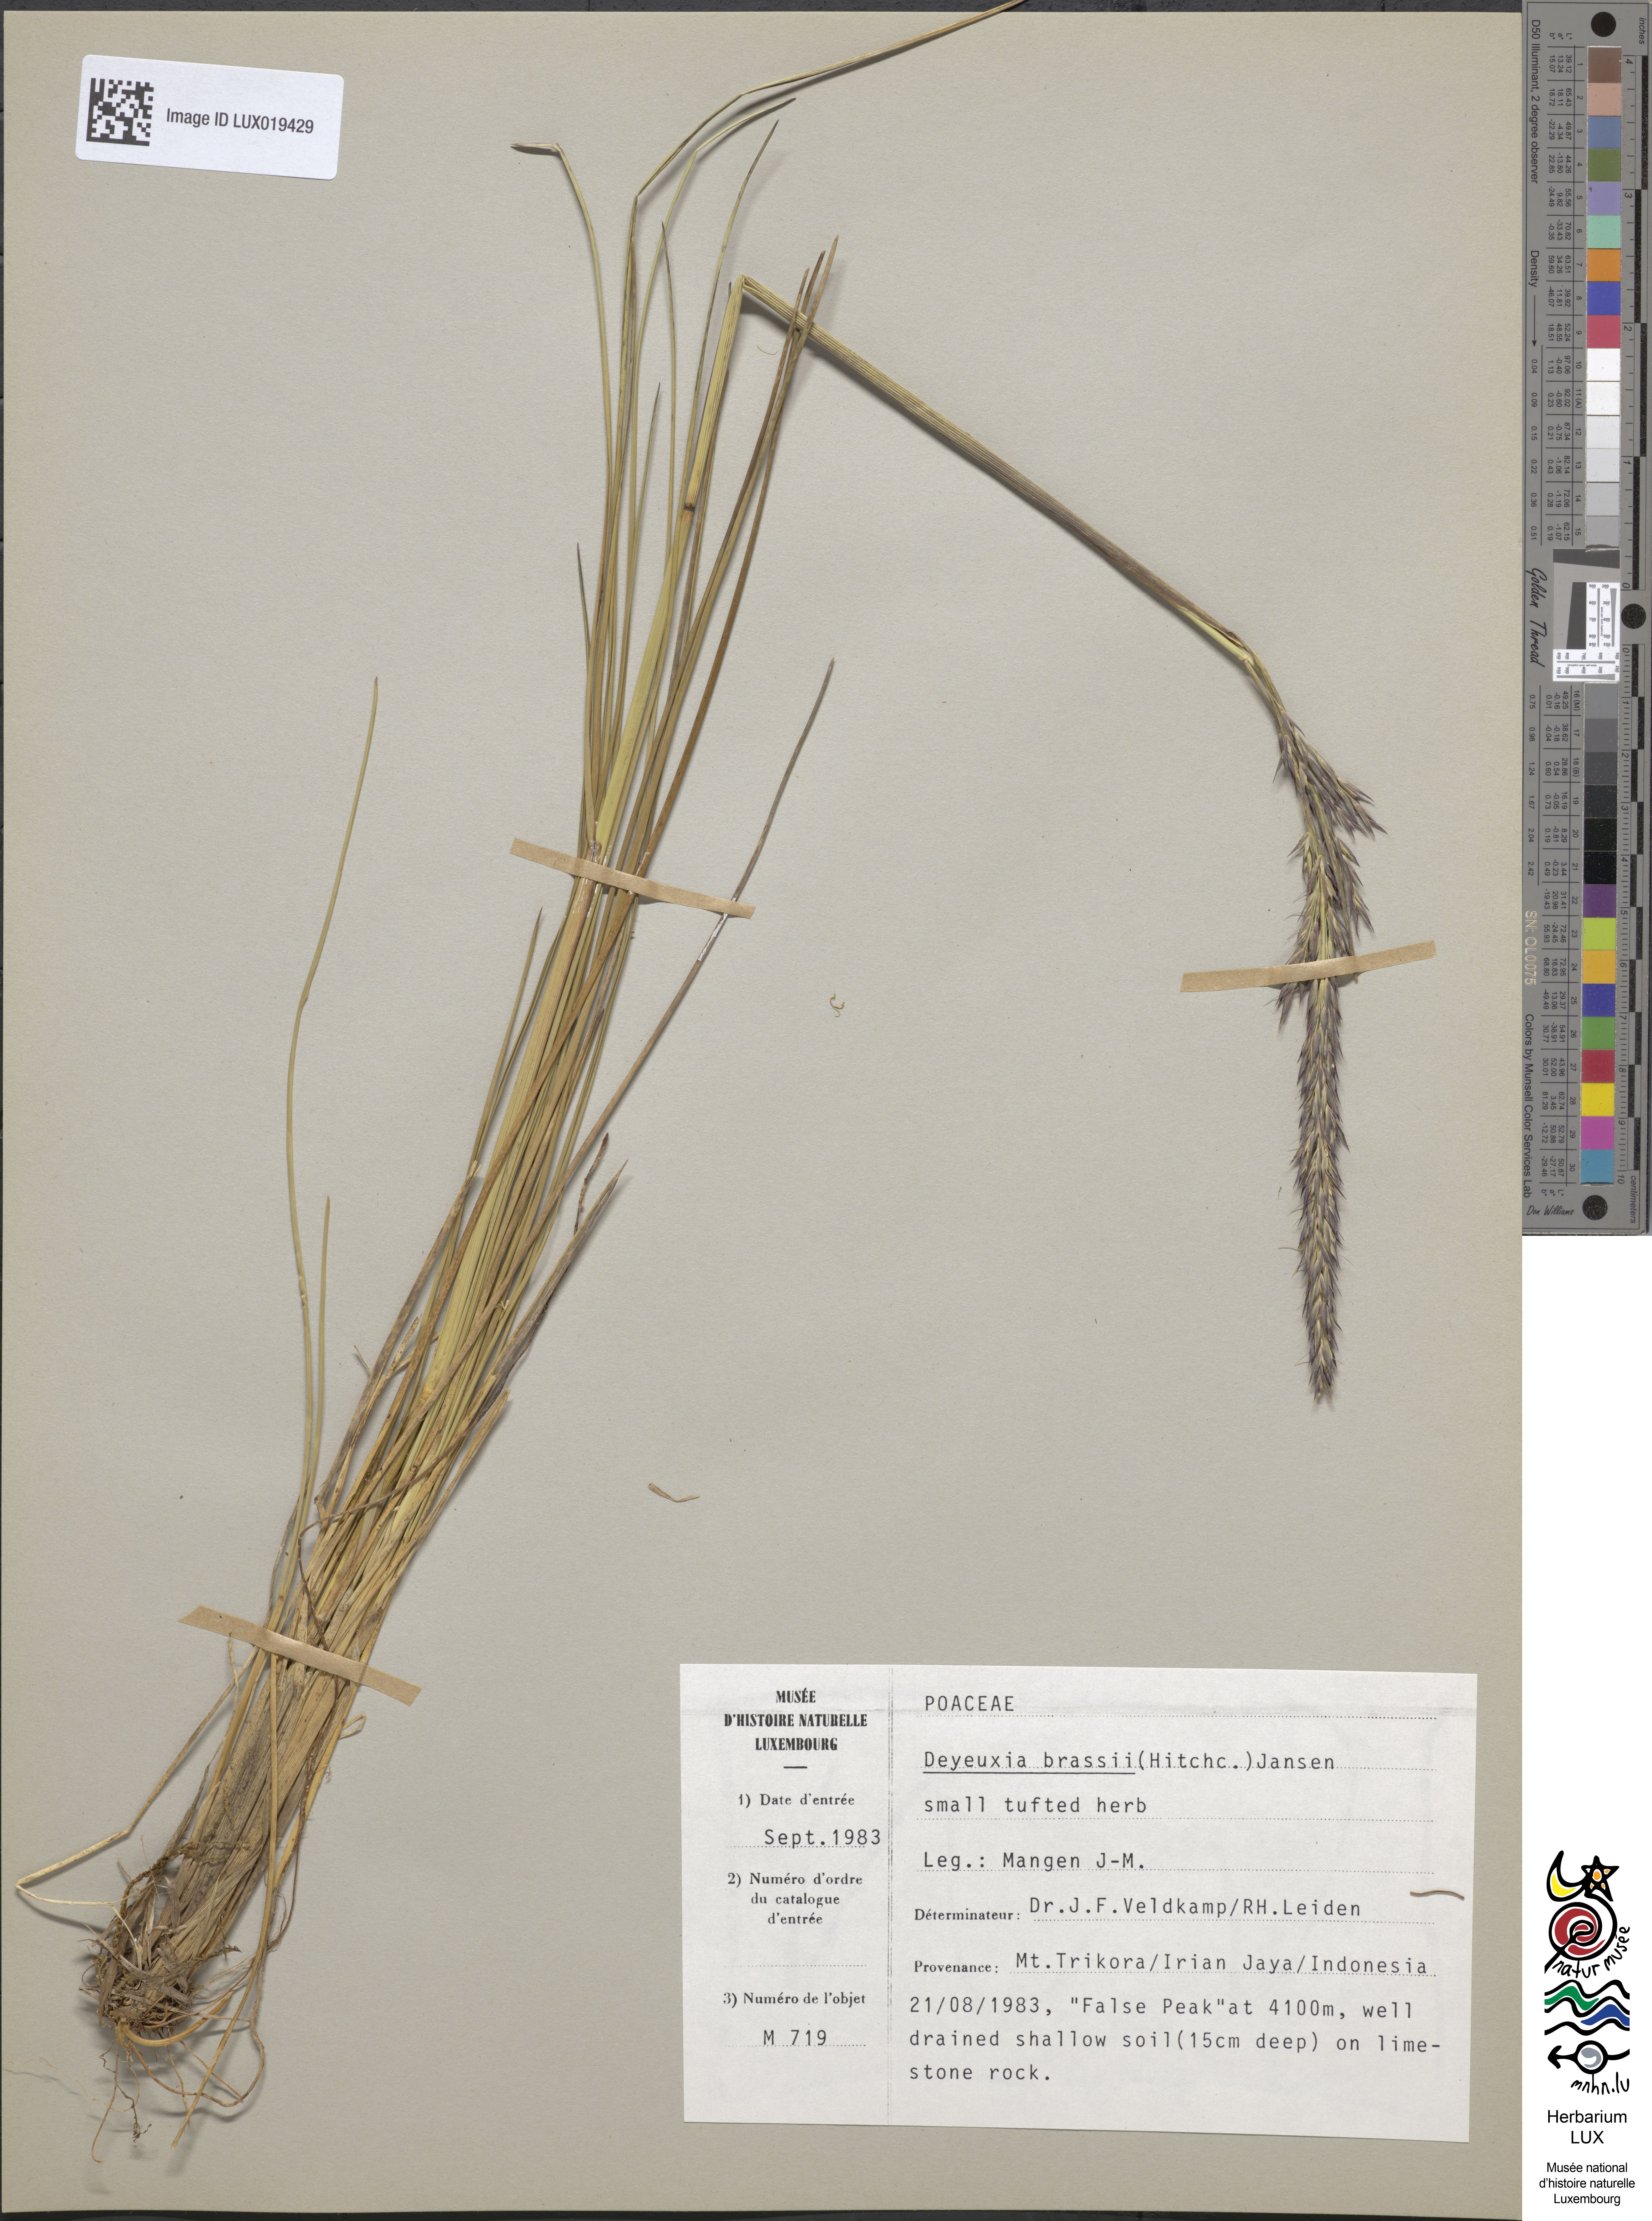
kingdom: Plantae
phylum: Tracheophyta
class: Liliopsida
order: Poales
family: Poaceae
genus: Calamagrostis
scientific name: Calamagrostis brassii
